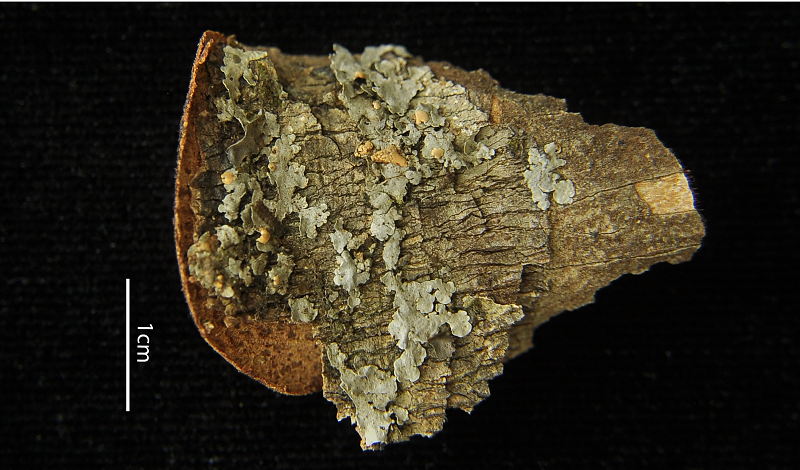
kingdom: Fungi
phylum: Ascomycota
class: Lecanoromycetes
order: Peltigerales
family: Coccocarpiaceae
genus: Coccocarpia
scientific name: Coccocarpia erythroxyli
